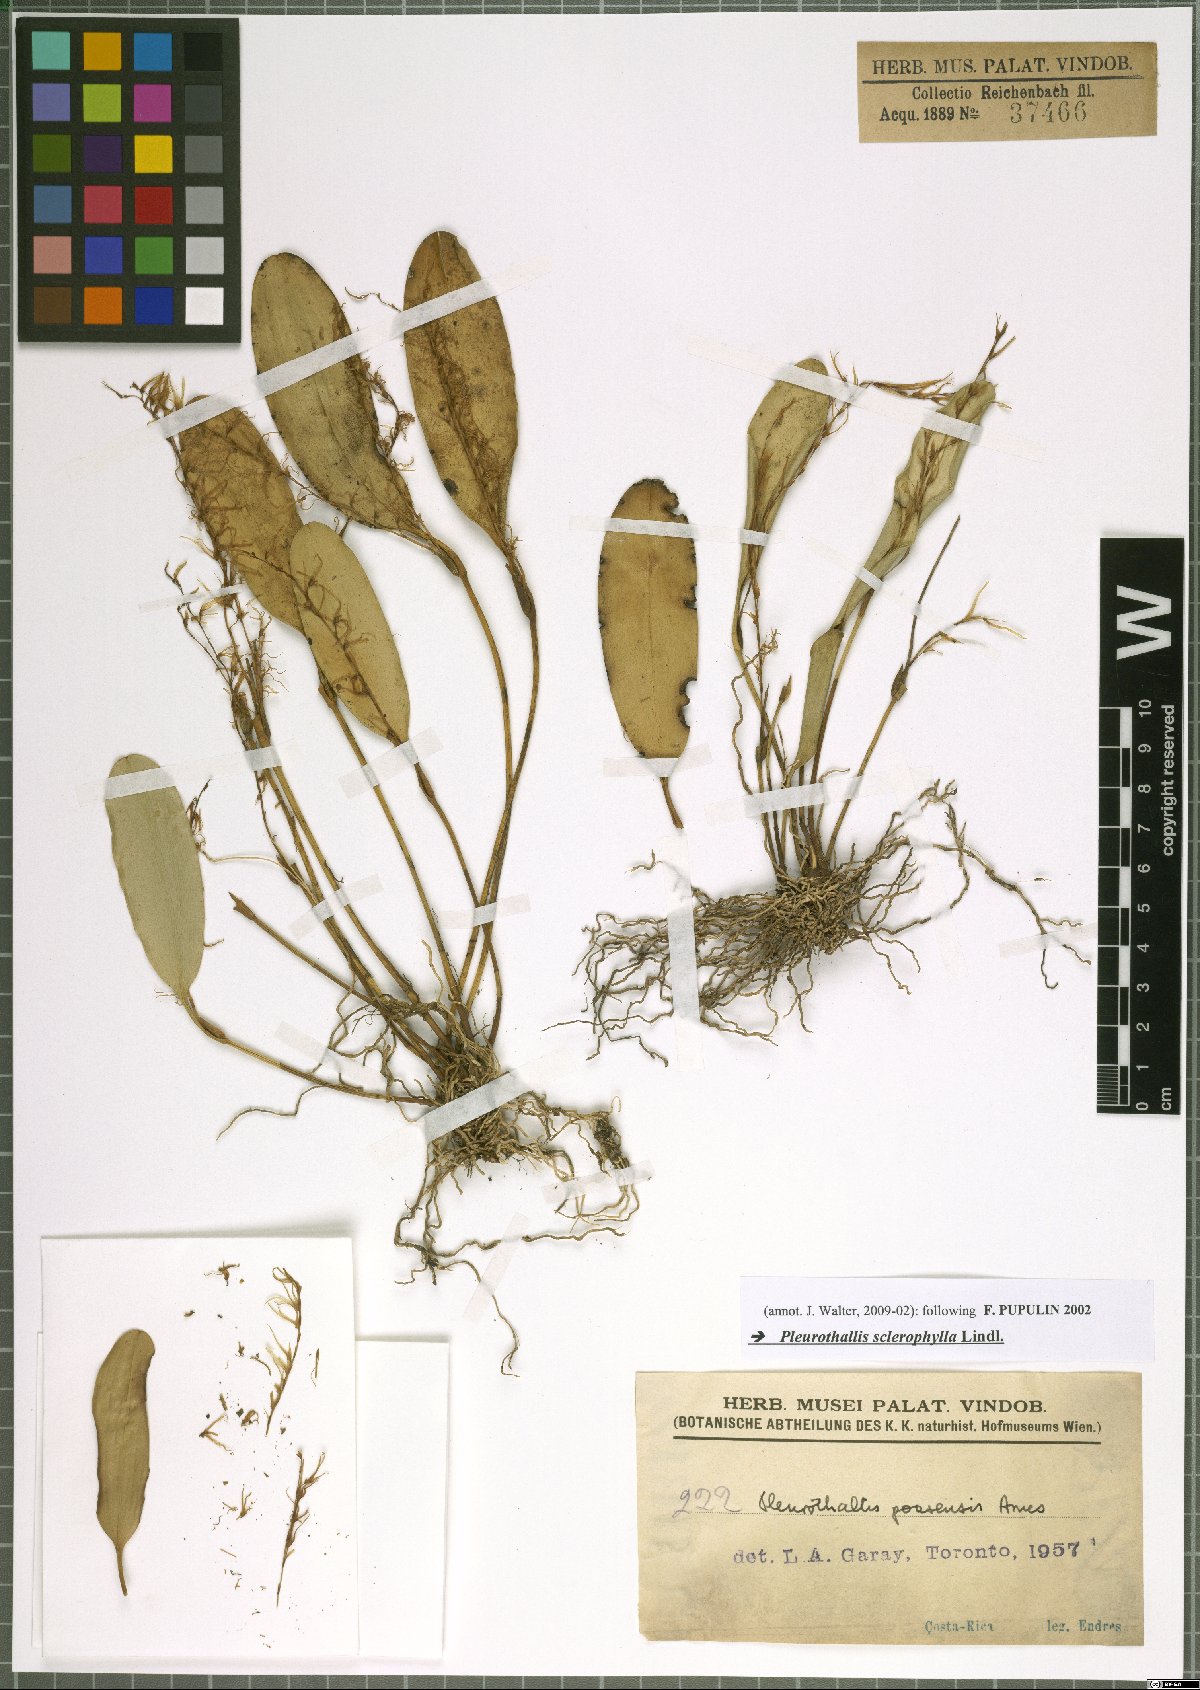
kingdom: Plantae
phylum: Tracheophyta
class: Liliopsida
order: Asparagales
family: Orchidaceae
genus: Stelis
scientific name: Stelis sclerophylla
